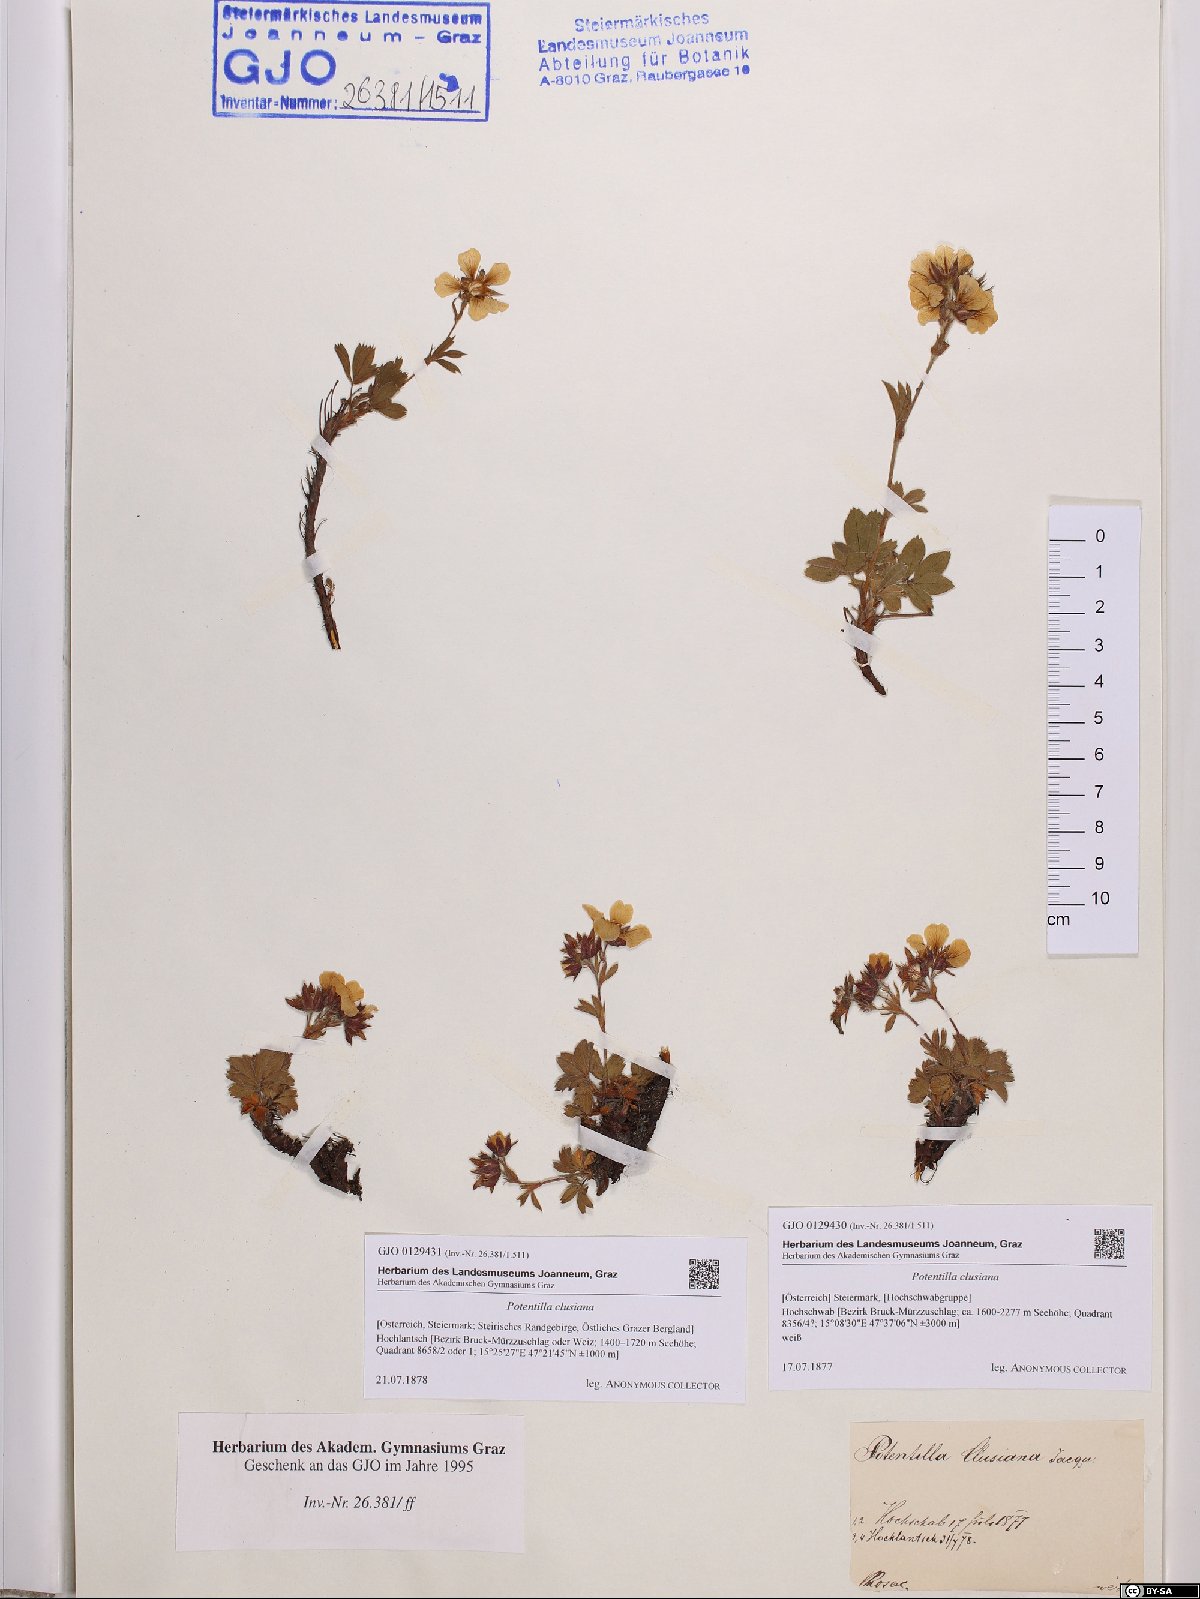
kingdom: Plantae
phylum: Tracheophyta
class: Magnoliopsida
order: Rosales
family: Rosaceae
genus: Potentilla
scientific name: Potentilla clusiana
